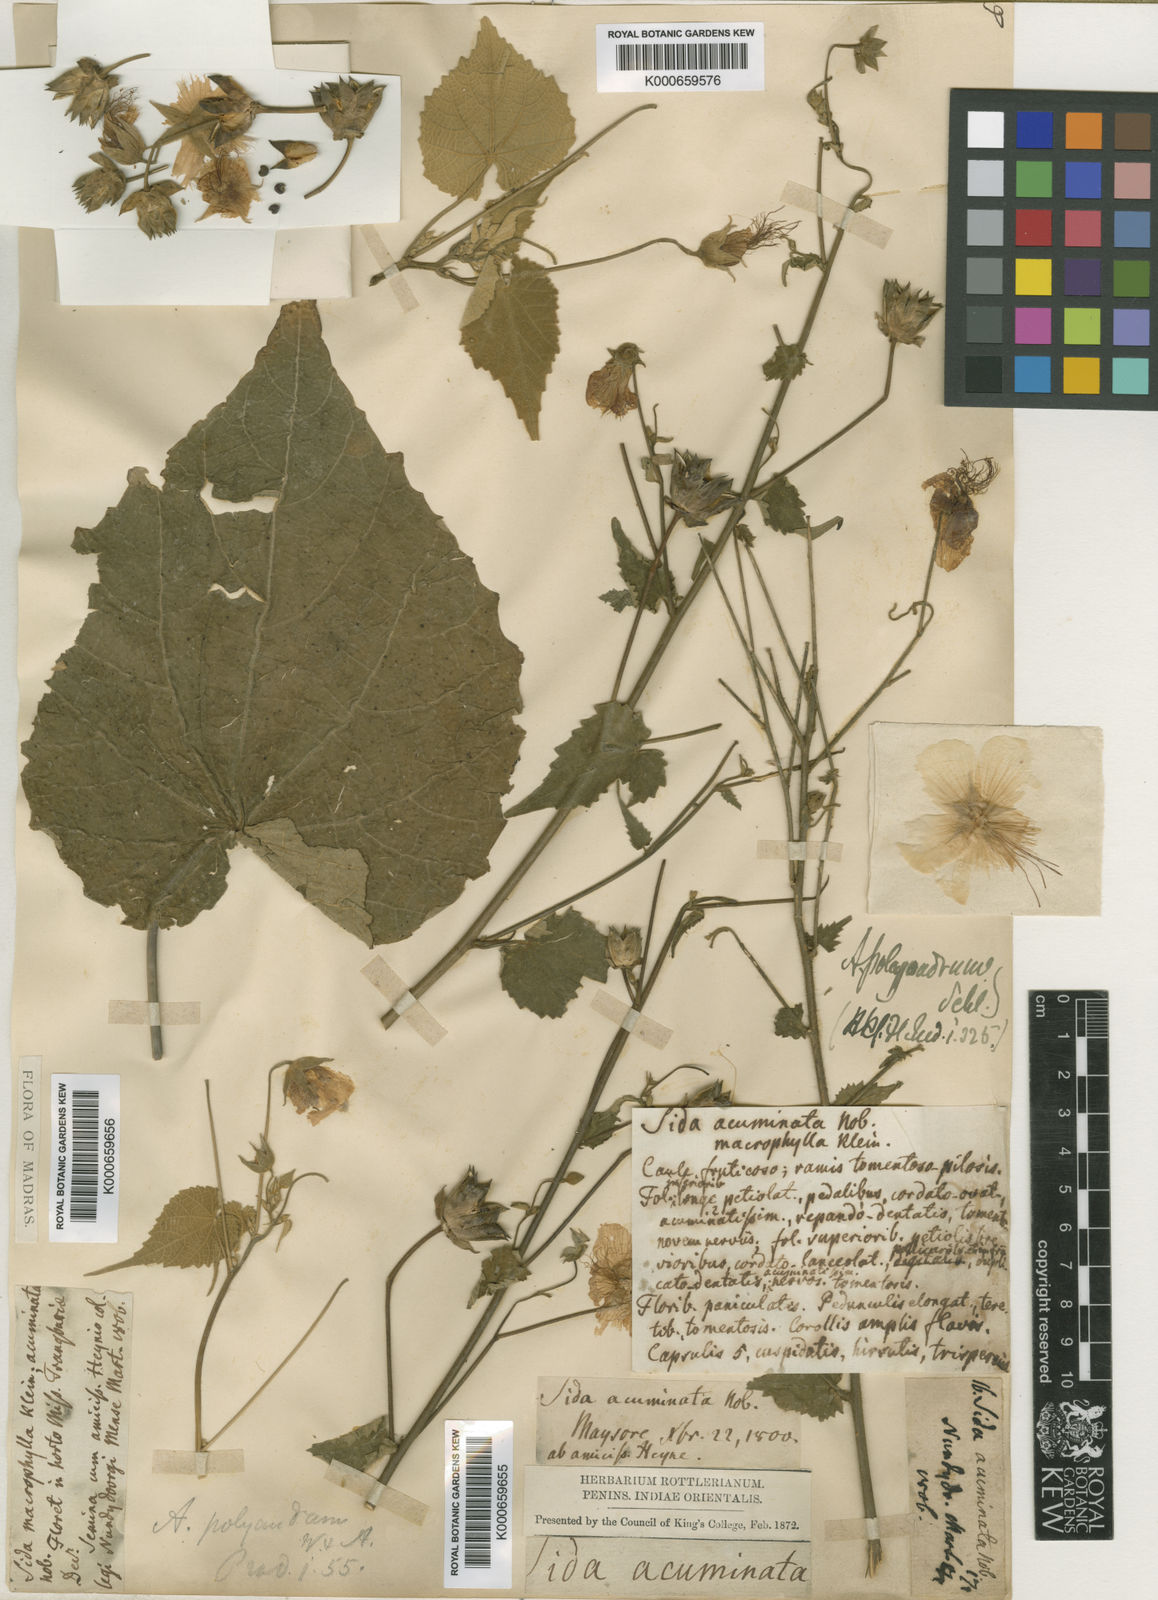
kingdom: Plantae
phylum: Tracheophyta
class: Magnoliopsida
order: Malvales
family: Malvaceae
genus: Abutilon
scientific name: Abutilon persicum
